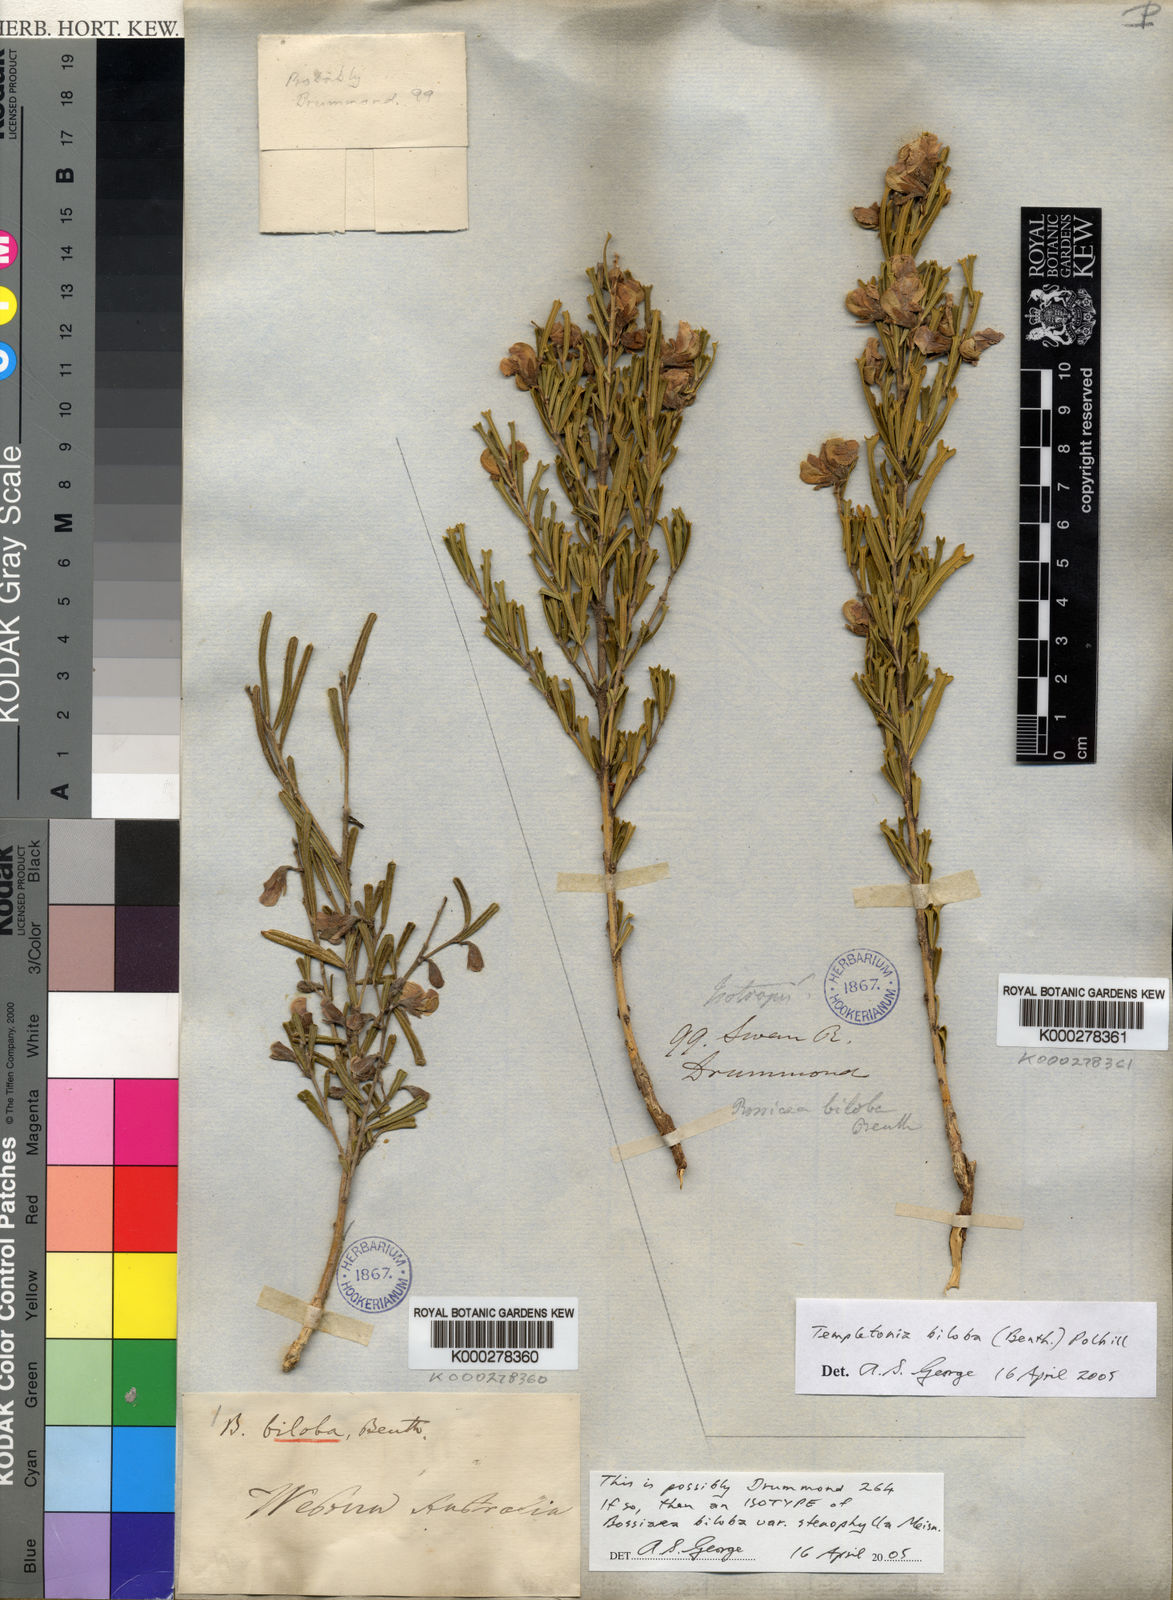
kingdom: Plantae
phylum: Tracheophyta
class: Magnoliopsida
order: Fabales
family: Fabaceae
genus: Cristonia
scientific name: Cristonia biloba
